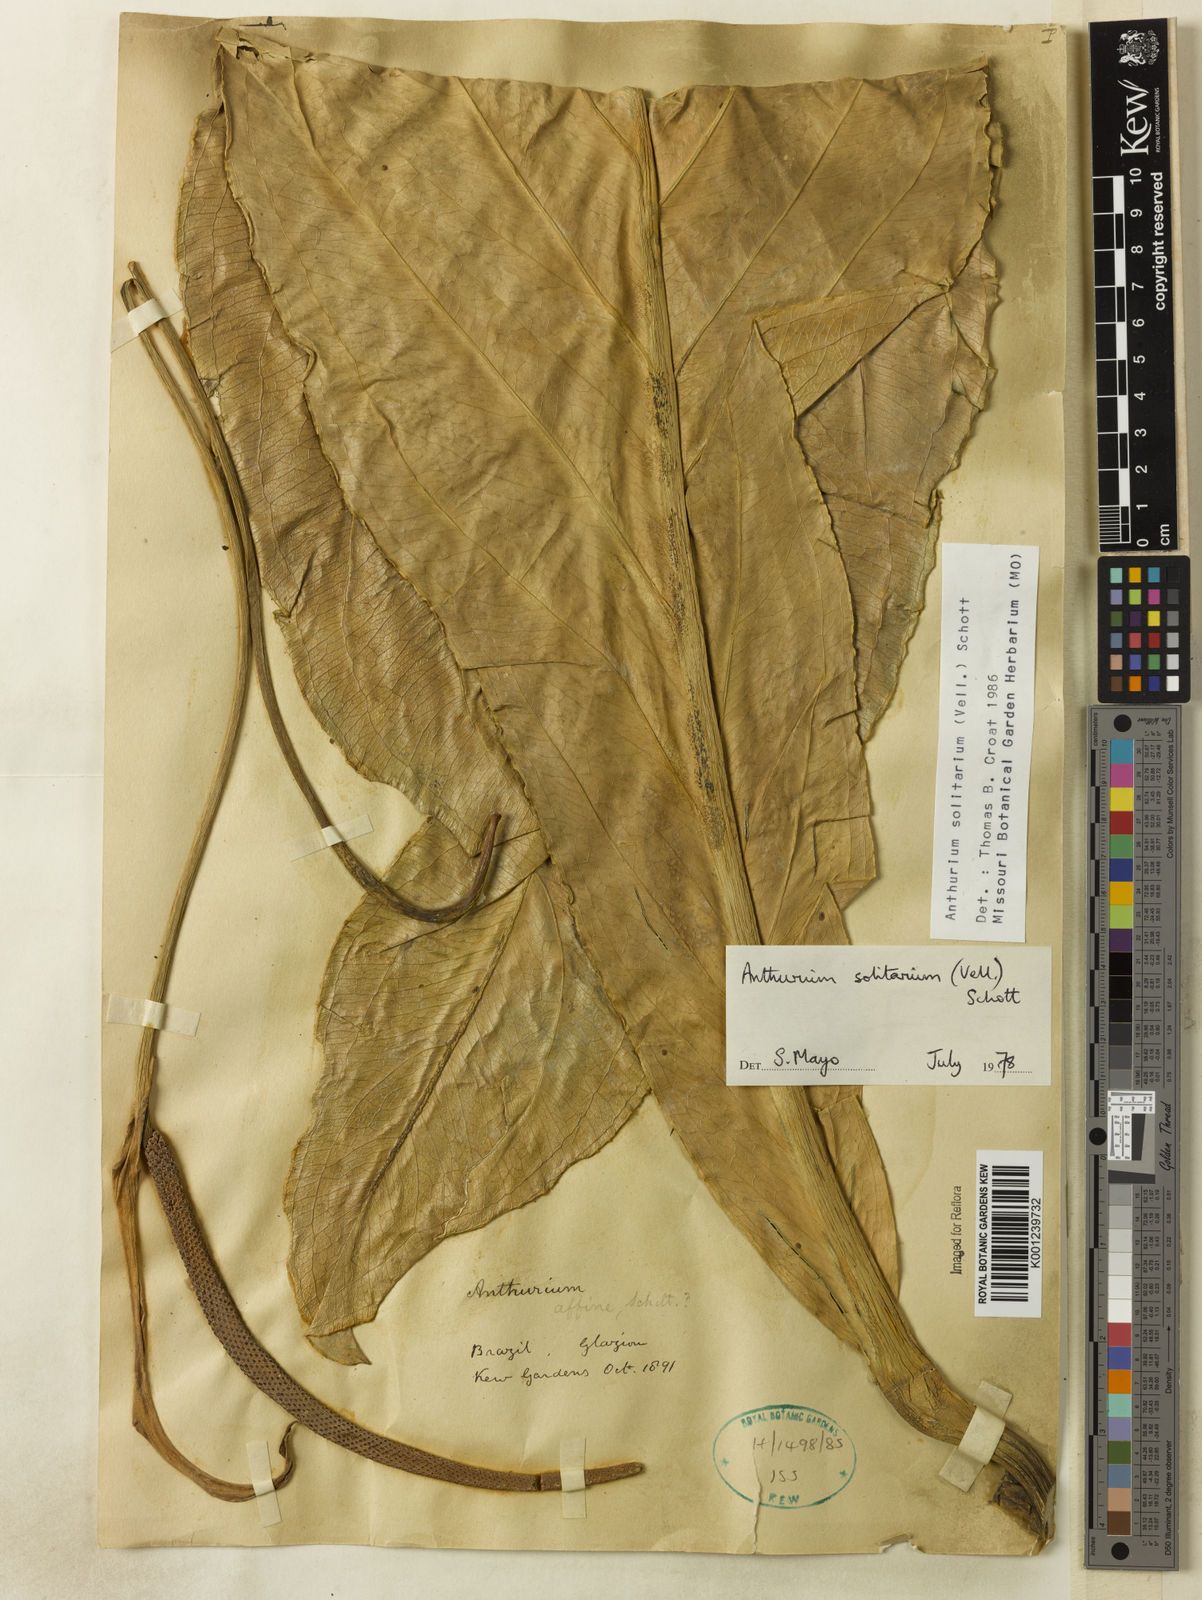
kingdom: Plantae
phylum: Tracheophyta
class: Liliopsida
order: Alismatales
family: Araceae
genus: Anthurium
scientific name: Anthurium solitarium
